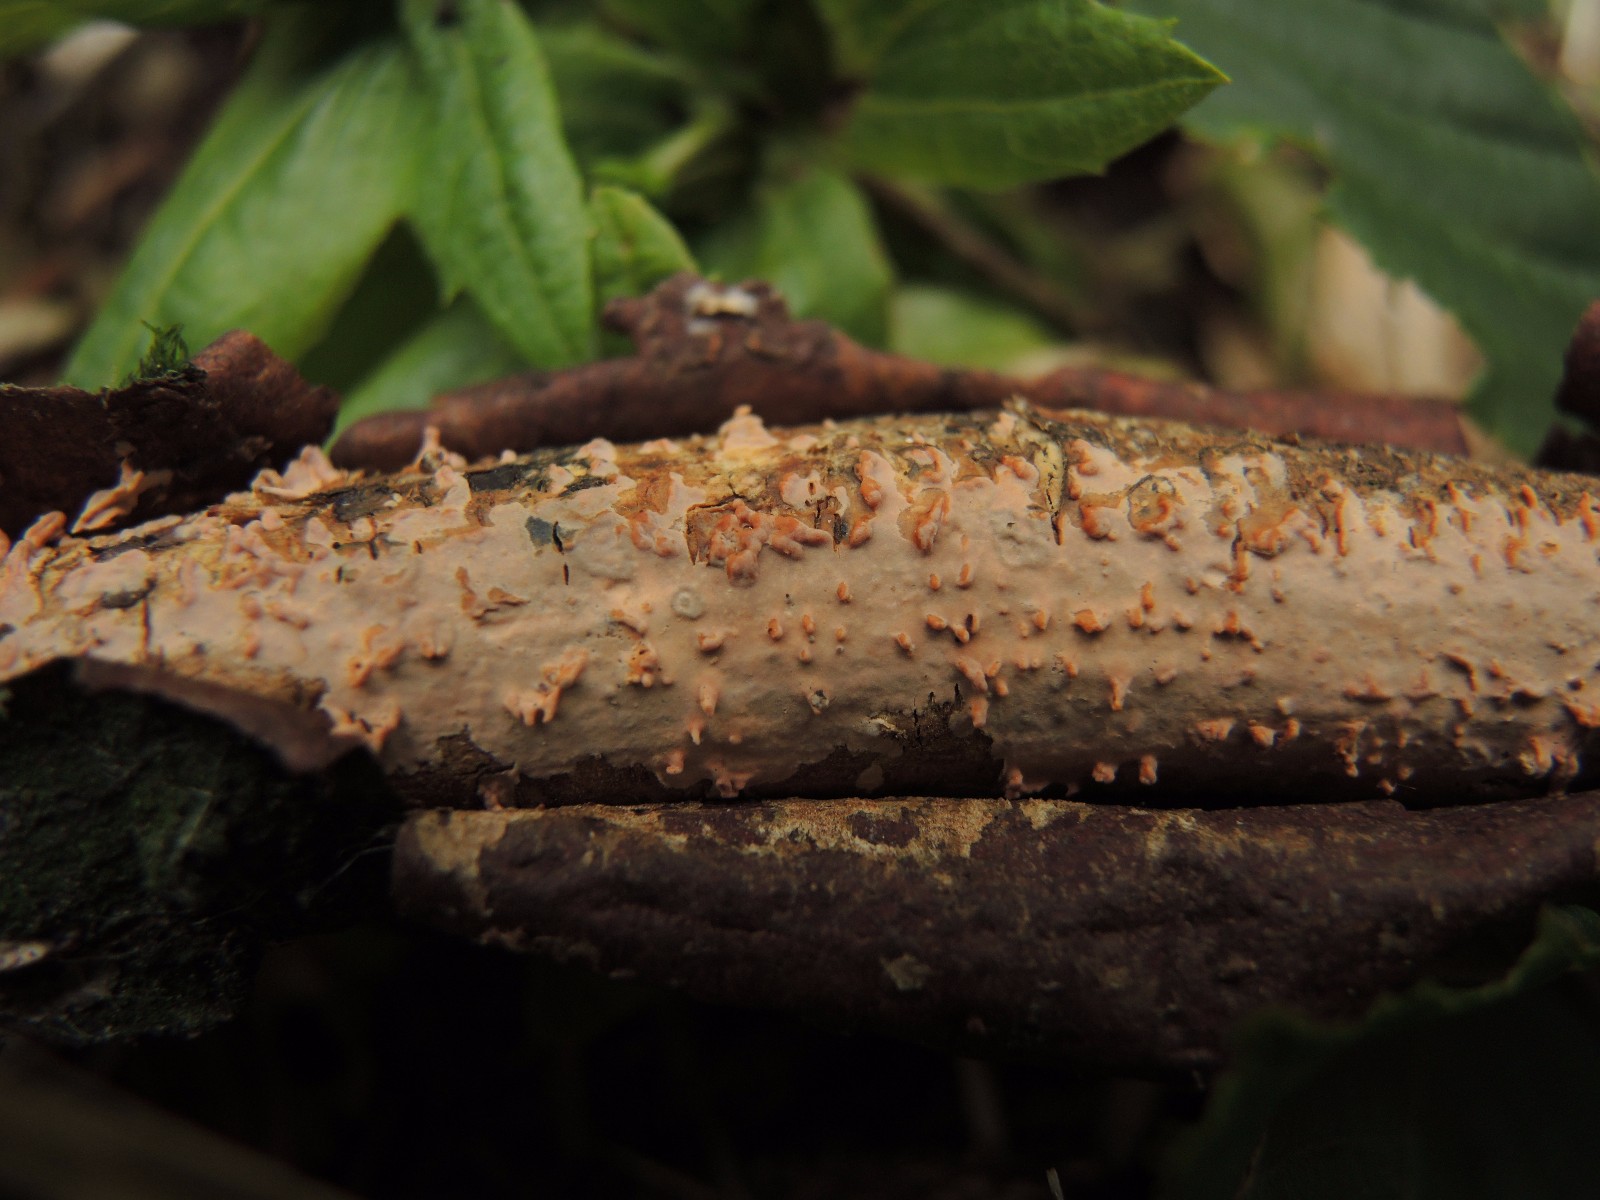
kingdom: Fungi
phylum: Basidiomycota
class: Agaricomycetes
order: Russulales
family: Peniophoraceae
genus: Peniophora
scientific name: Peniophora laeta
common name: tandet voksskind
